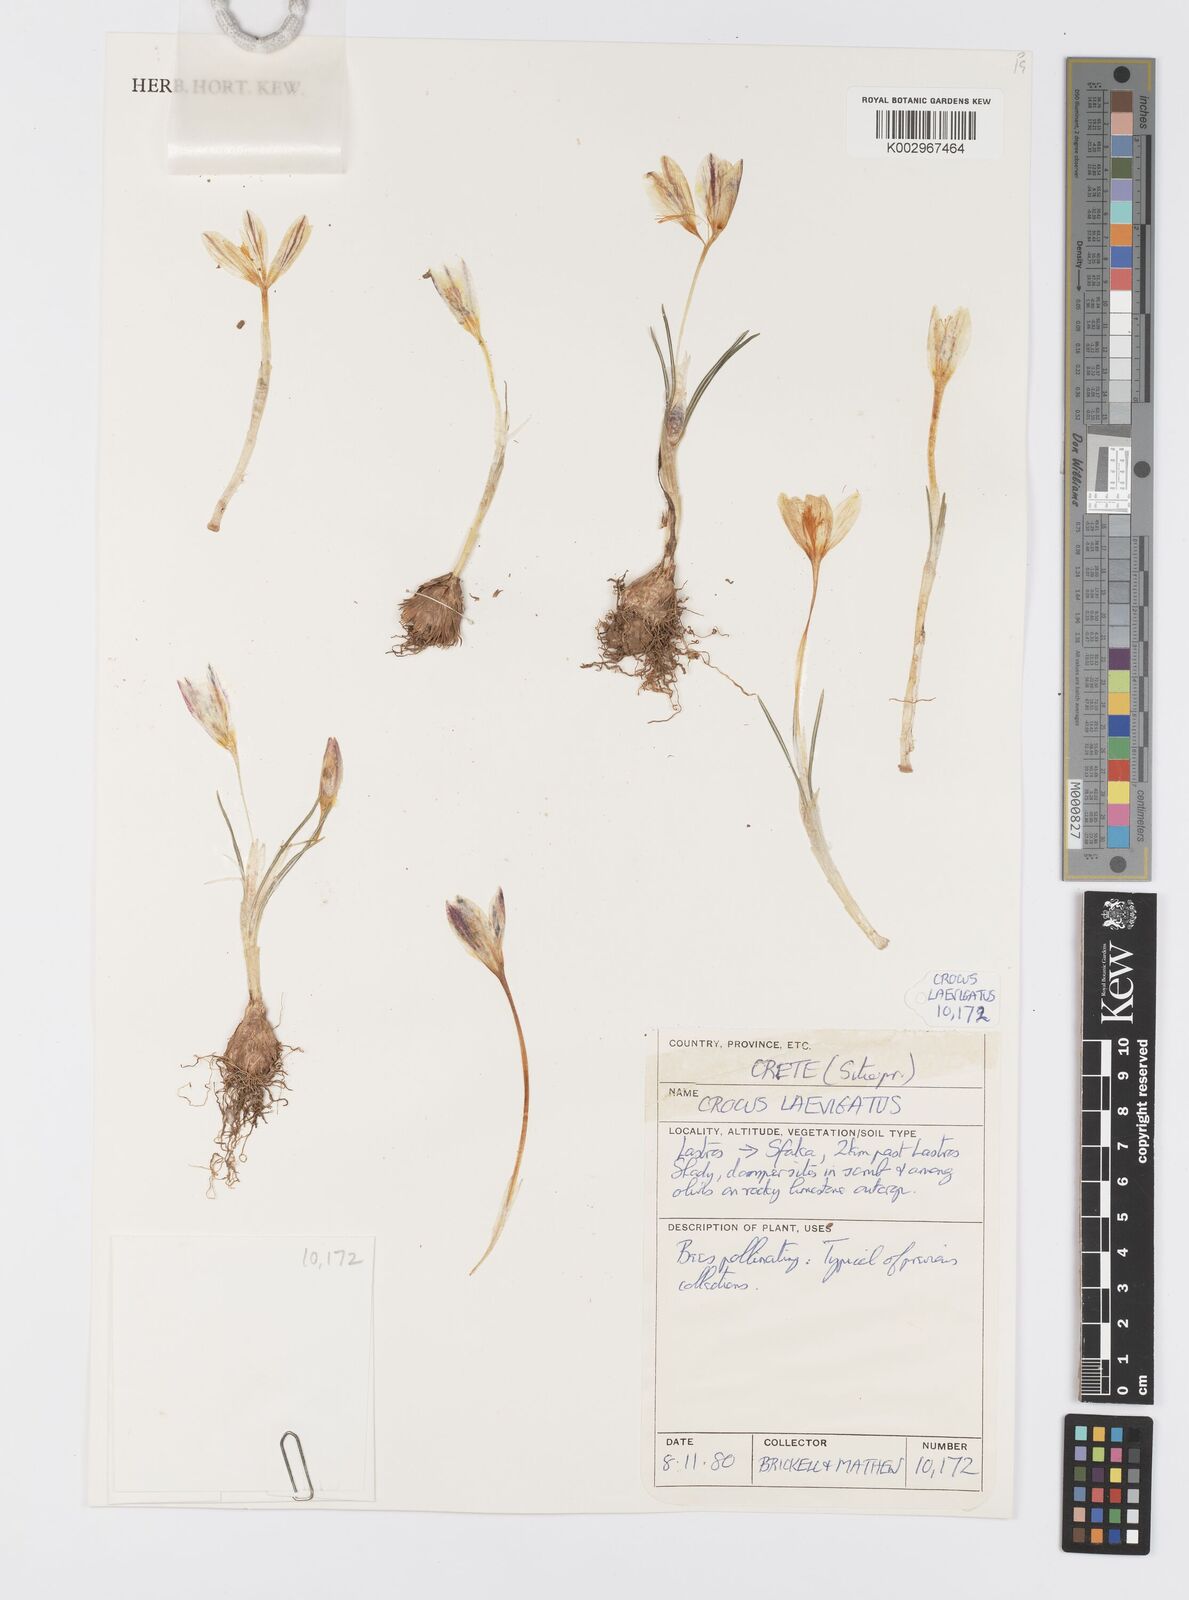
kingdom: Plantae
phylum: Tracheophyta
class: Liliopsida
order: Asparagales
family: Iridaceae
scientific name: Iridaceae
